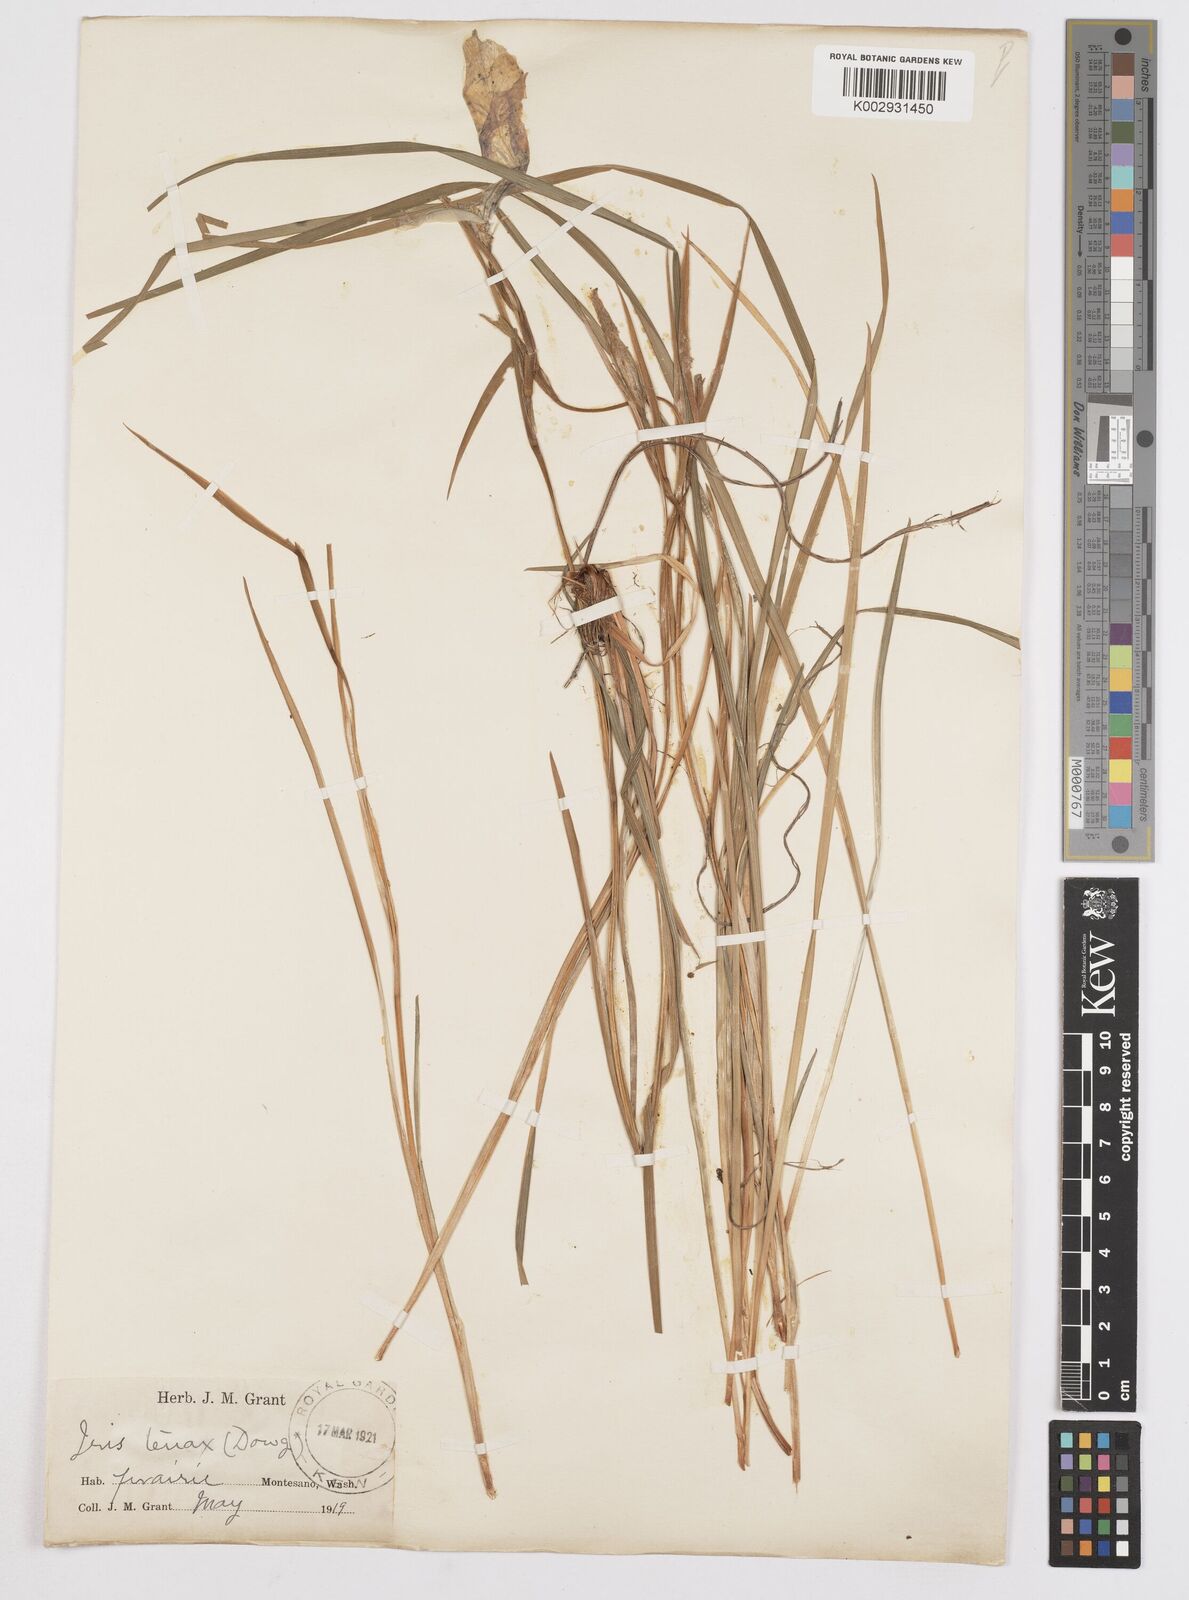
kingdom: Plantae
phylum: Tracheophyta
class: Liliopsida
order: Asparagales
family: Iridaceae
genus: Iris
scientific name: Iris tenax
